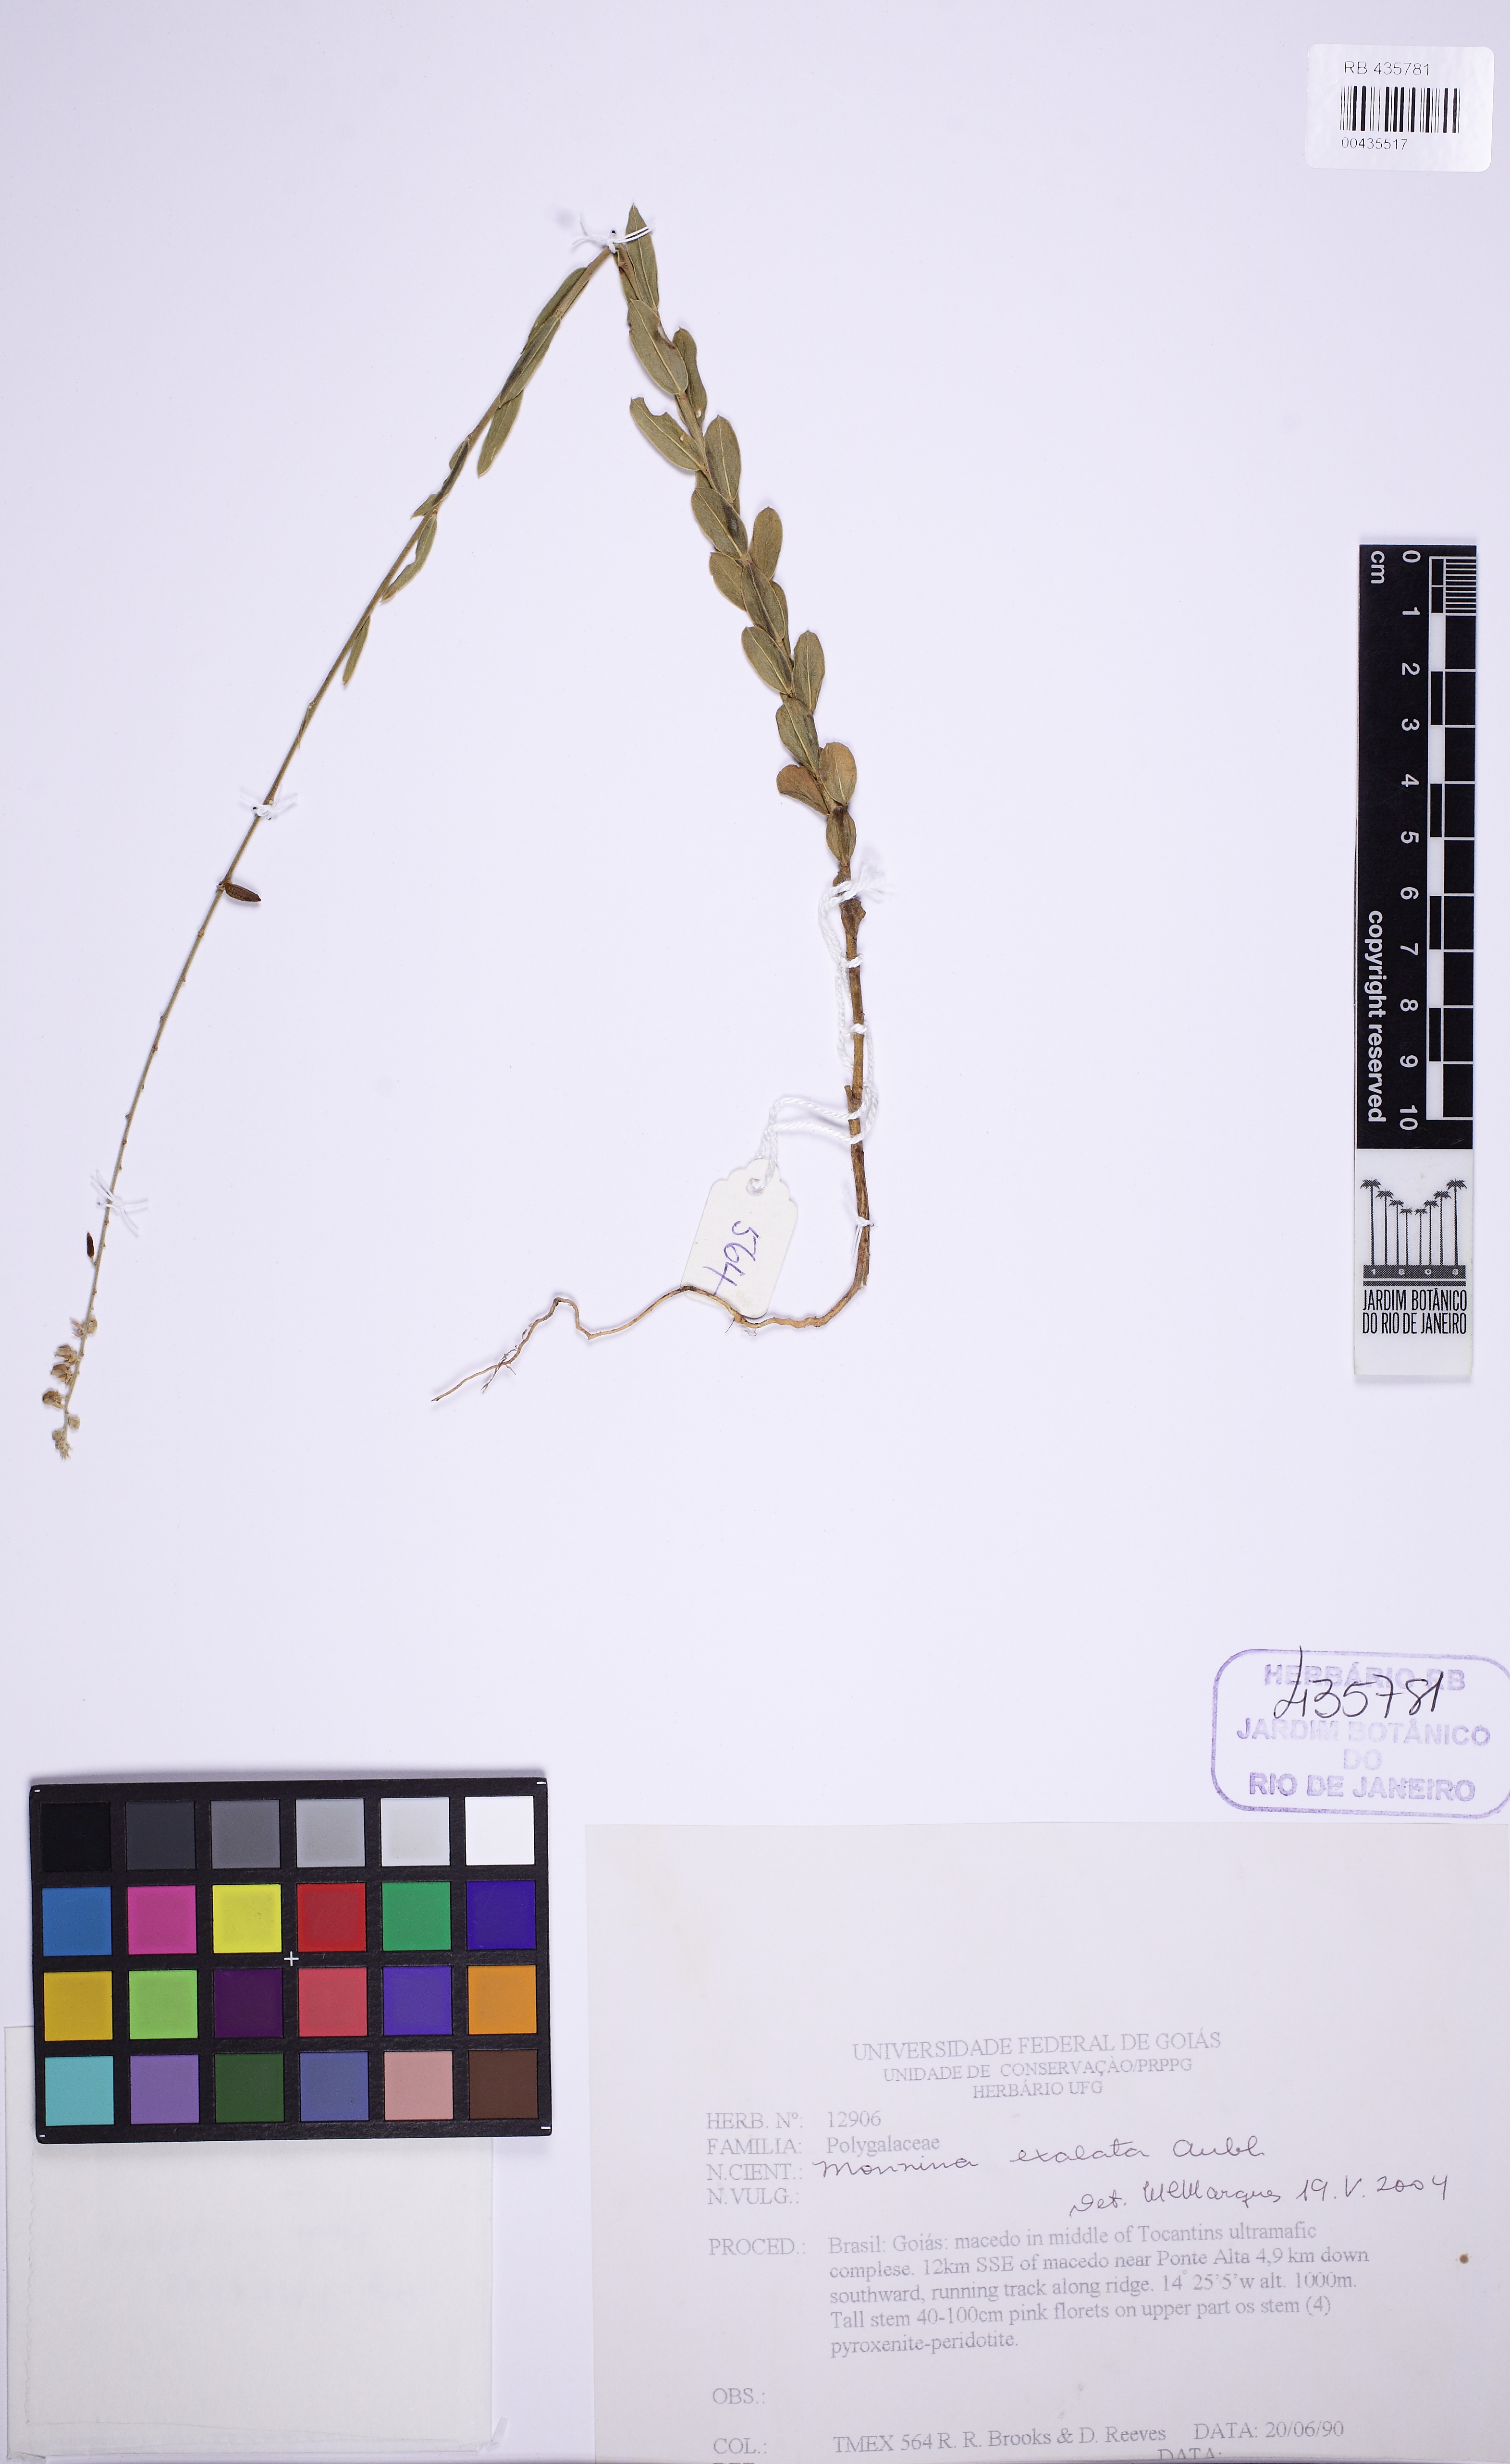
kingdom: Plantae
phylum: Tracheophyta
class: Magnoliopsida
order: Fabales
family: Polygalaceae
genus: Monnina
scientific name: Monnina exalata
